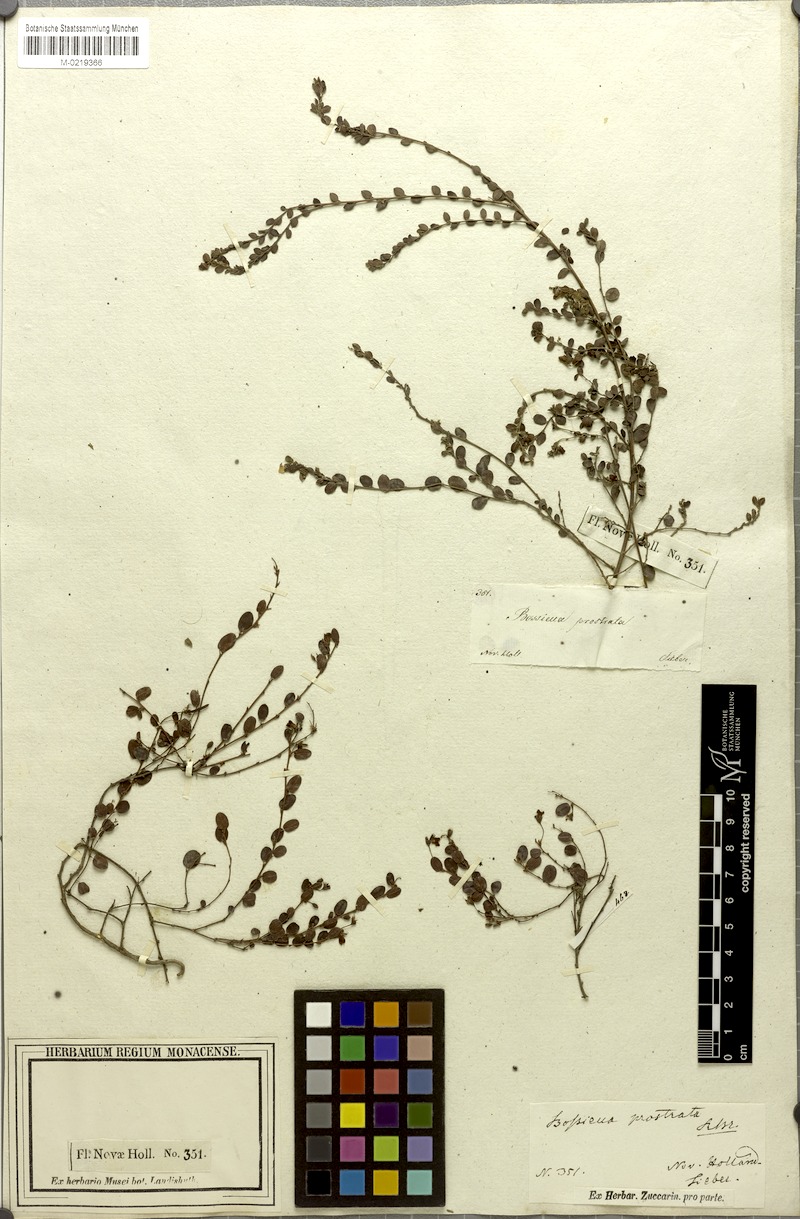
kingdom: Plantae
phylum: Tracheophyta
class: Magnoliopsida
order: Fabales
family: Fabaceae
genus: Bossiaea
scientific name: Bossiaea prostrata
